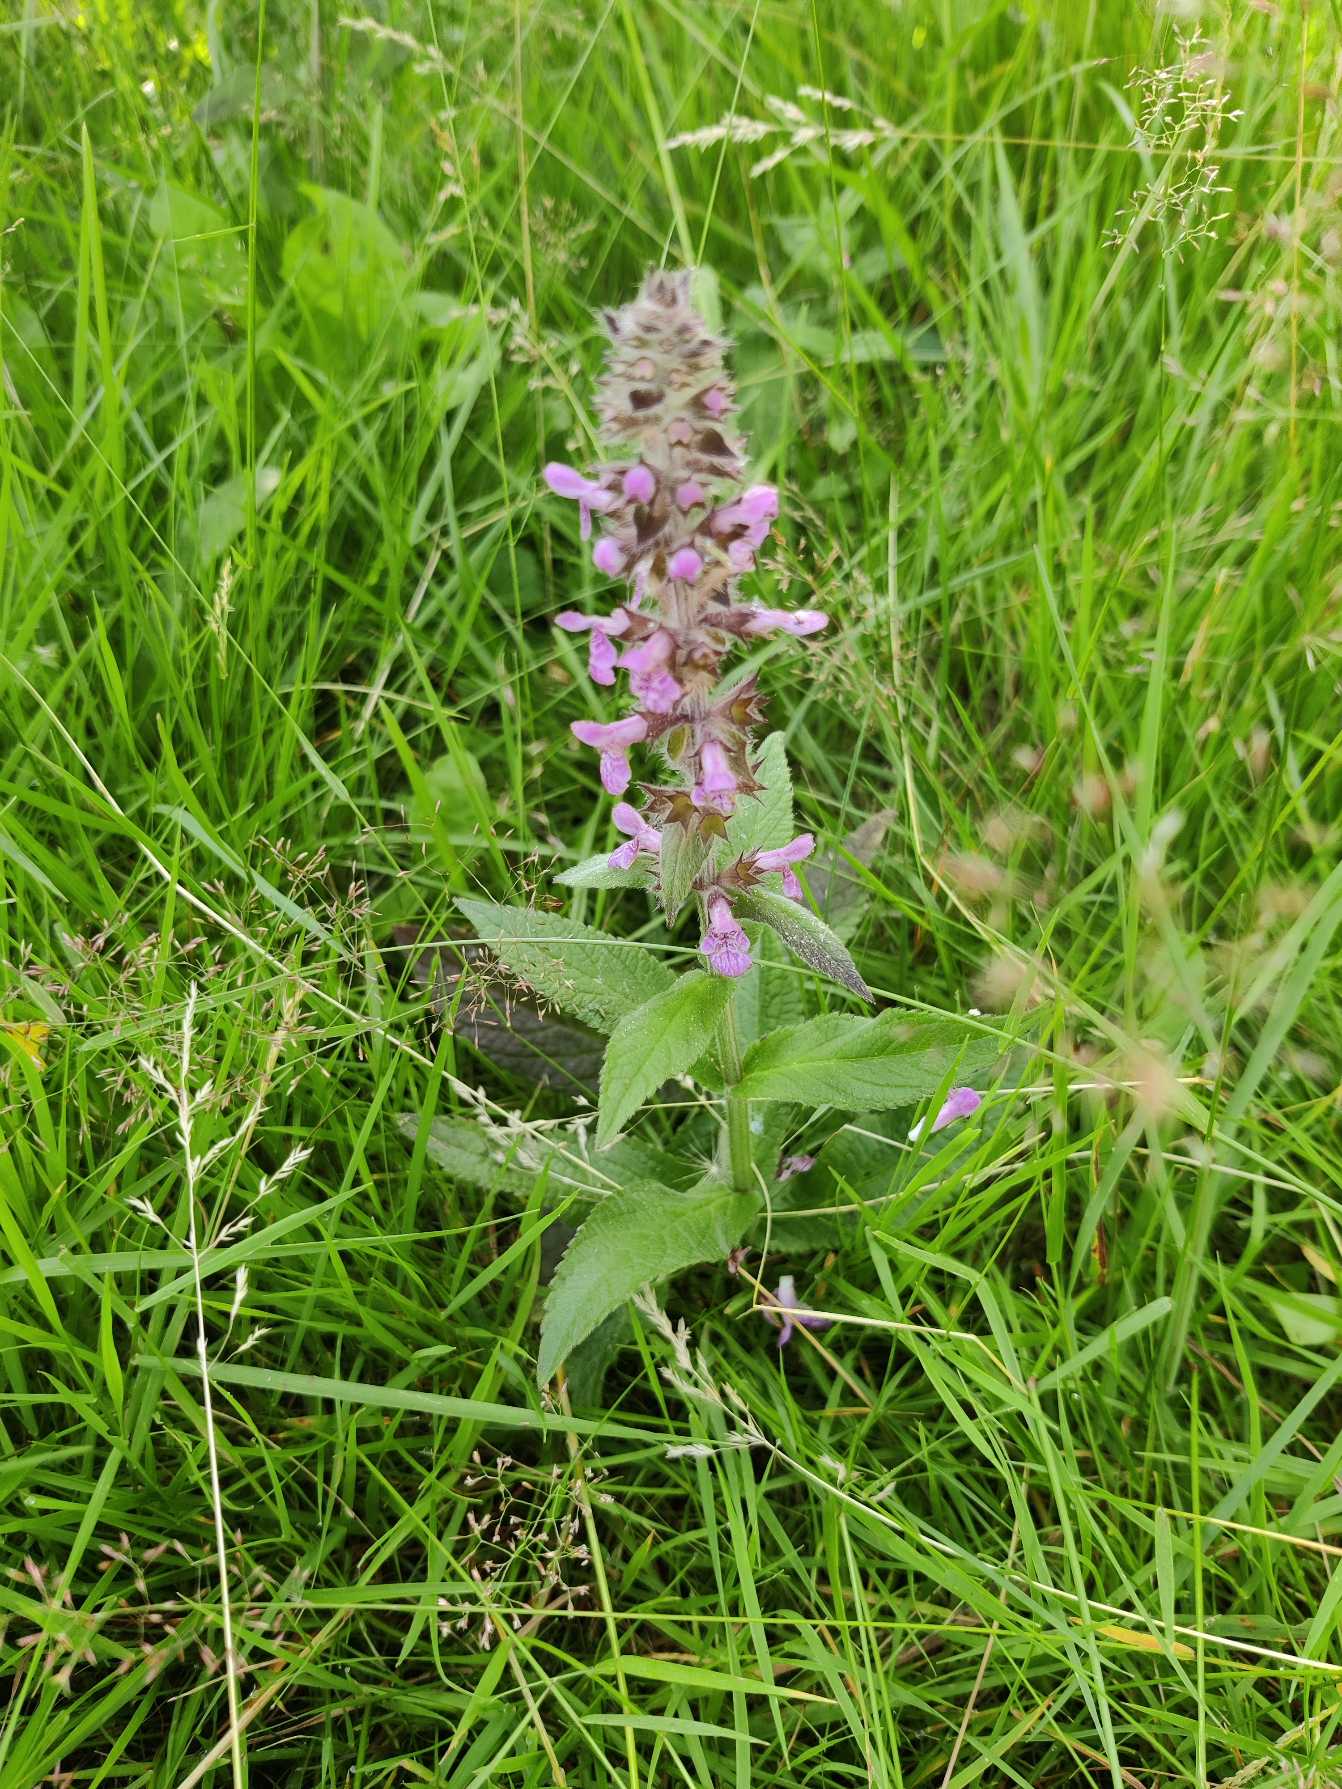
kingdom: Plantae
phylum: Tracheophyta
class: Magnoliopsida
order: Lamiales
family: Lamiaceae
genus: Stachys
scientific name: Stachys palustris
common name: Kær-galtetand
